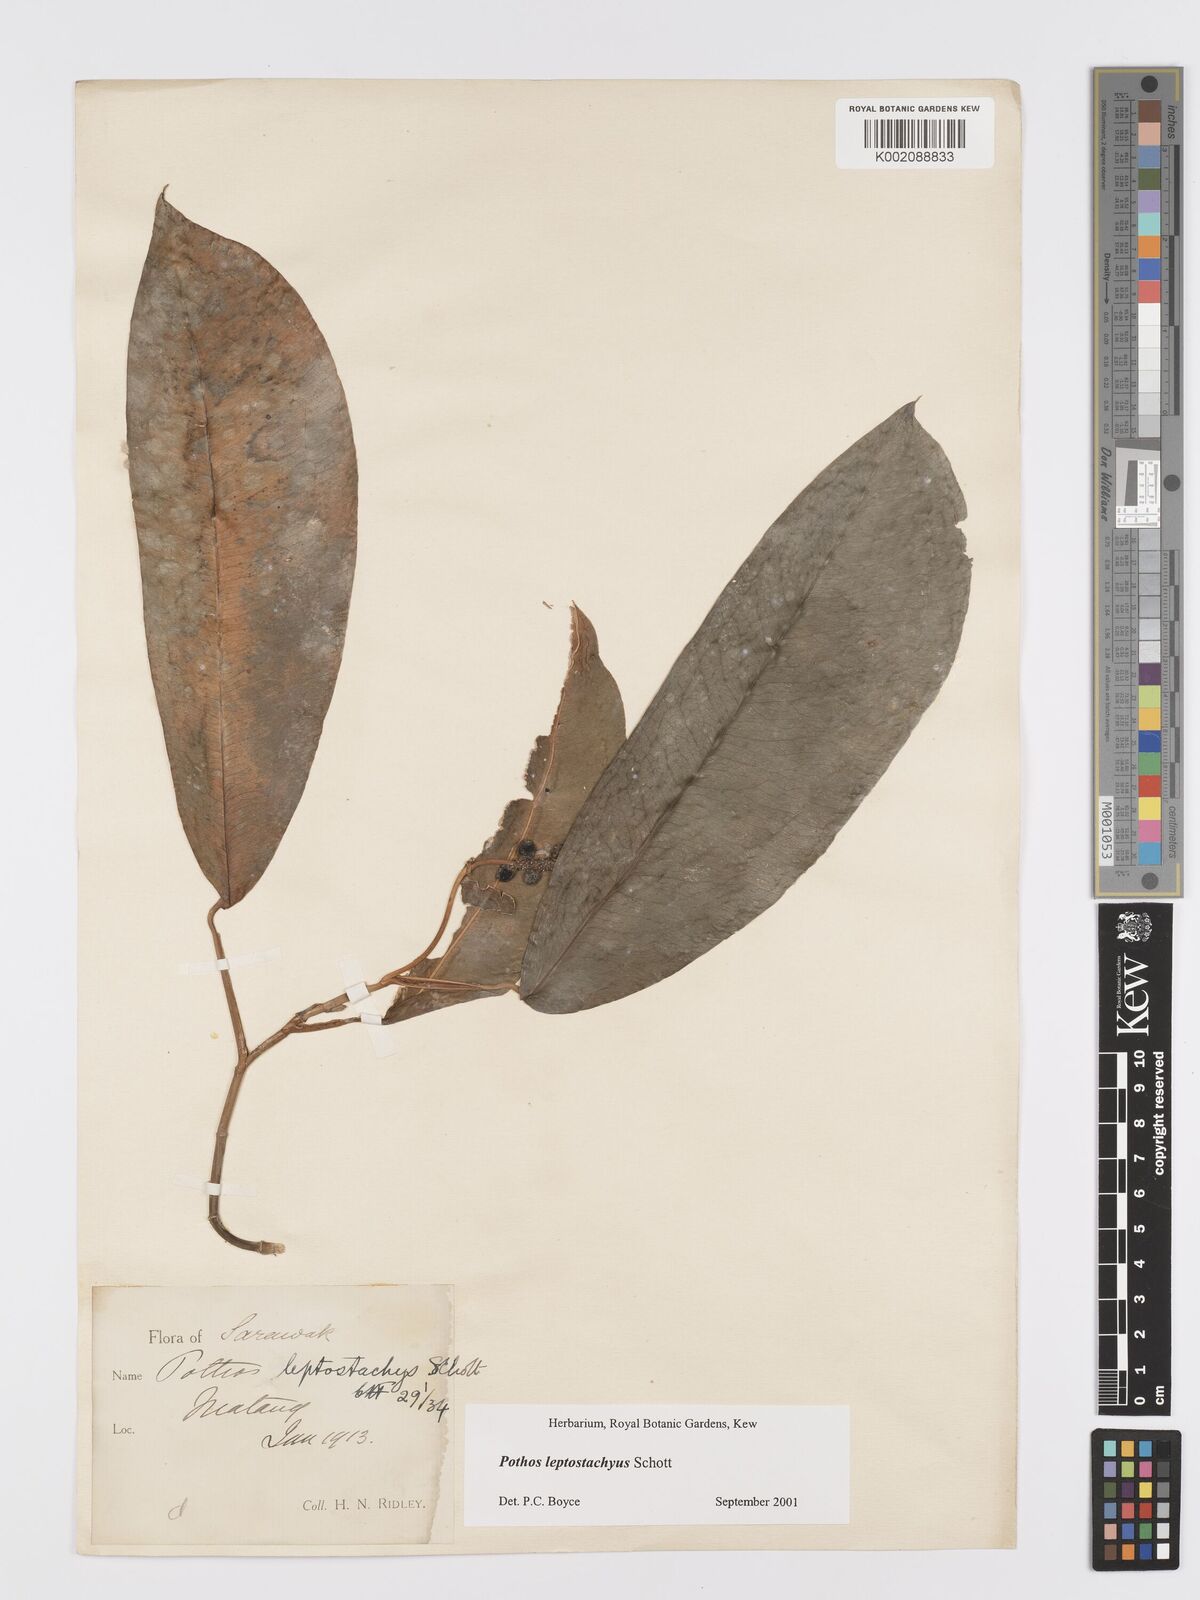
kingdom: Plantae
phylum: Tracheophyta
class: Liliopsida
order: Alismatales
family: Araceae
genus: Pothos
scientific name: Pothos leptostachyus
